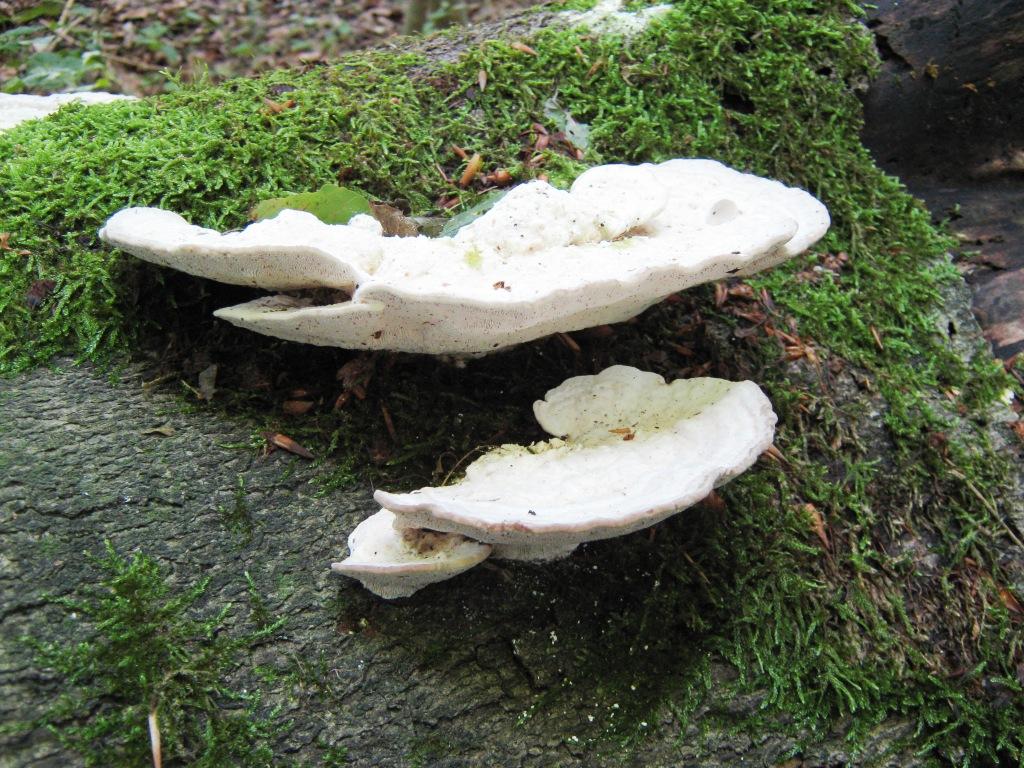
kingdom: Fungi
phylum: Basidiomycota
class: Agaricomycetes
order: Polyporales
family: Polyporaceae
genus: Trametes
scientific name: Trametes gibbosa
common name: puklet læderporesvamp
